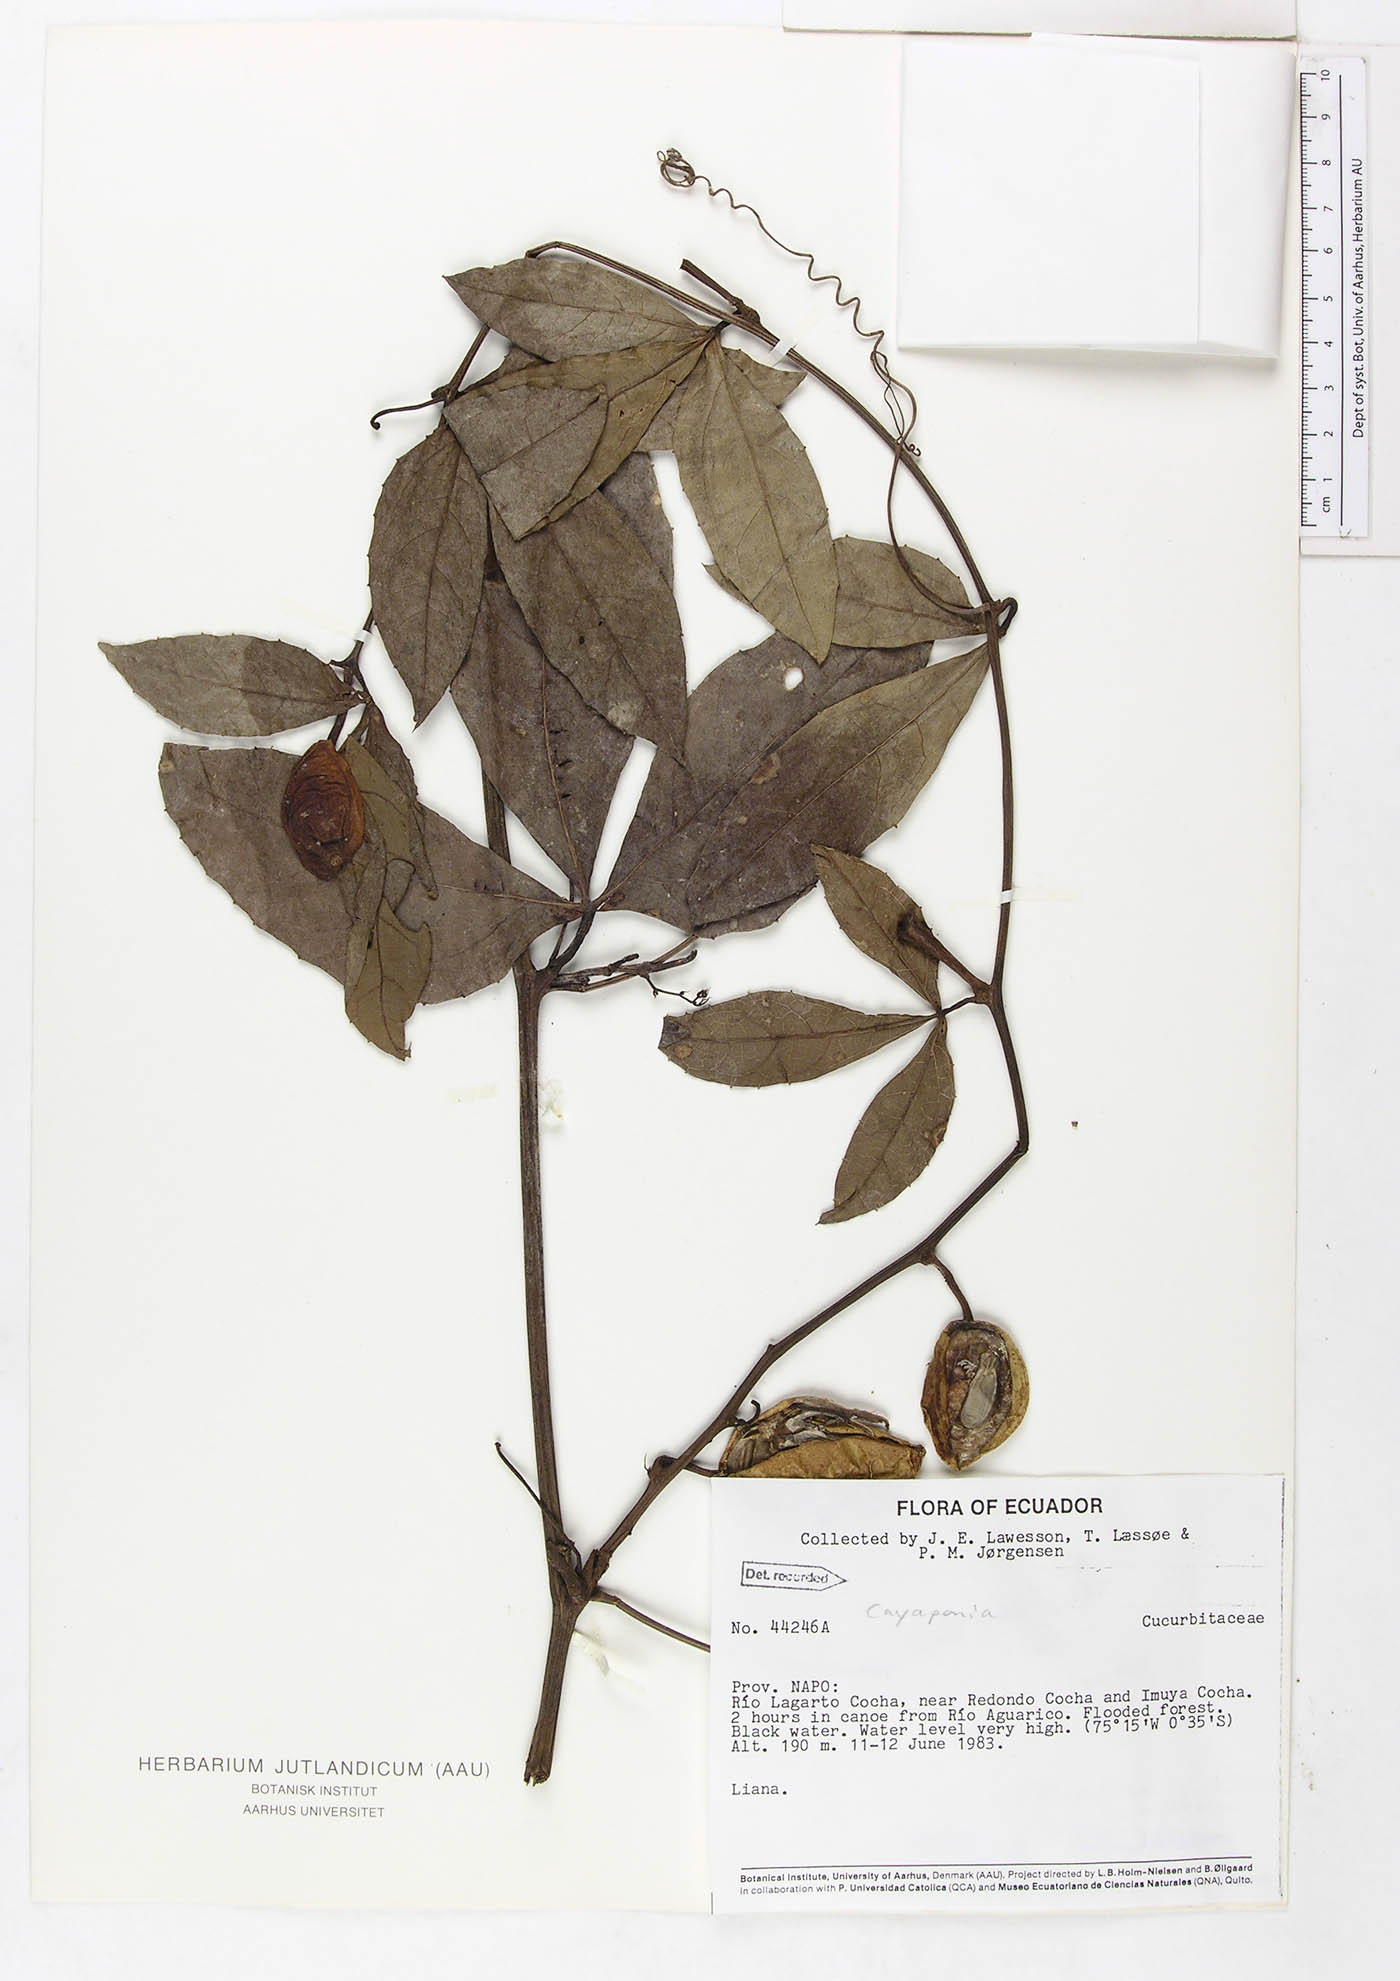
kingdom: Plantae
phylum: Tracheophyta
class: Magnoliopsida
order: Cucurbitales
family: Cucurbitaceae
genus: Cayaponia
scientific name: Cayaponia amazonica
